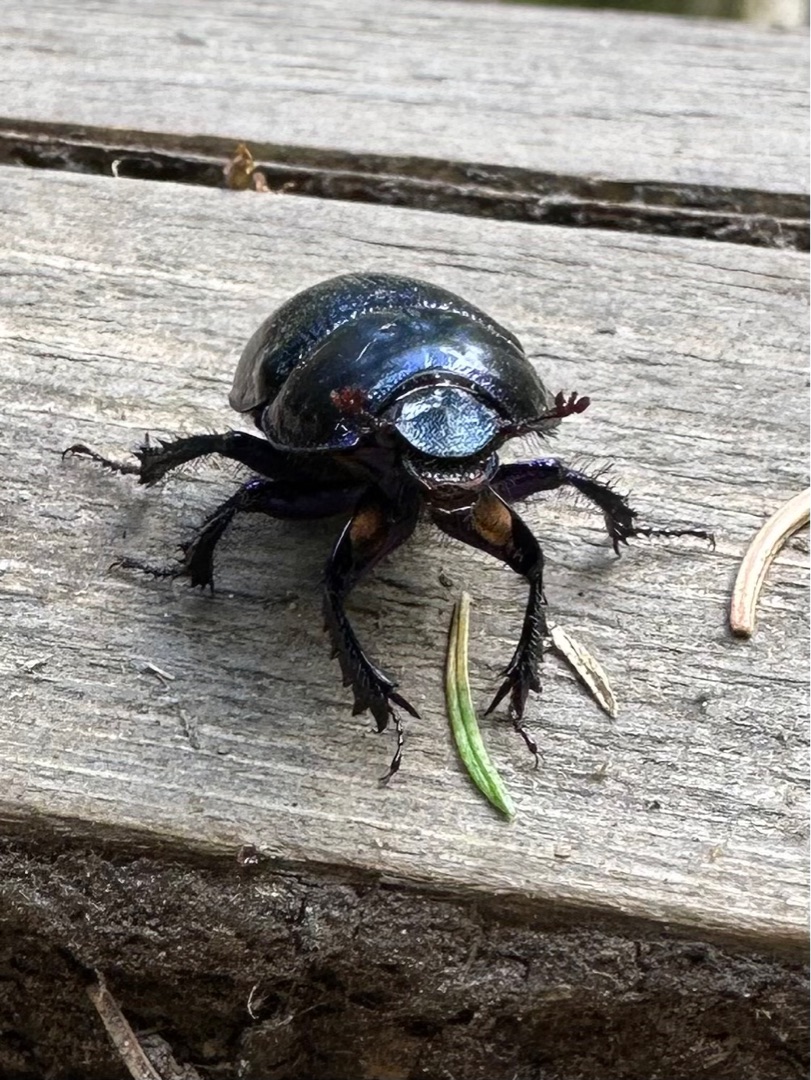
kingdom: Animalia
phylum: Arthropoda
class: Insecta
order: Coleoptera
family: Geotrupidae
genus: Anoplotrupes
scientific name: Anoplotrupes stercorosus
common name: Skovskarnbasse
